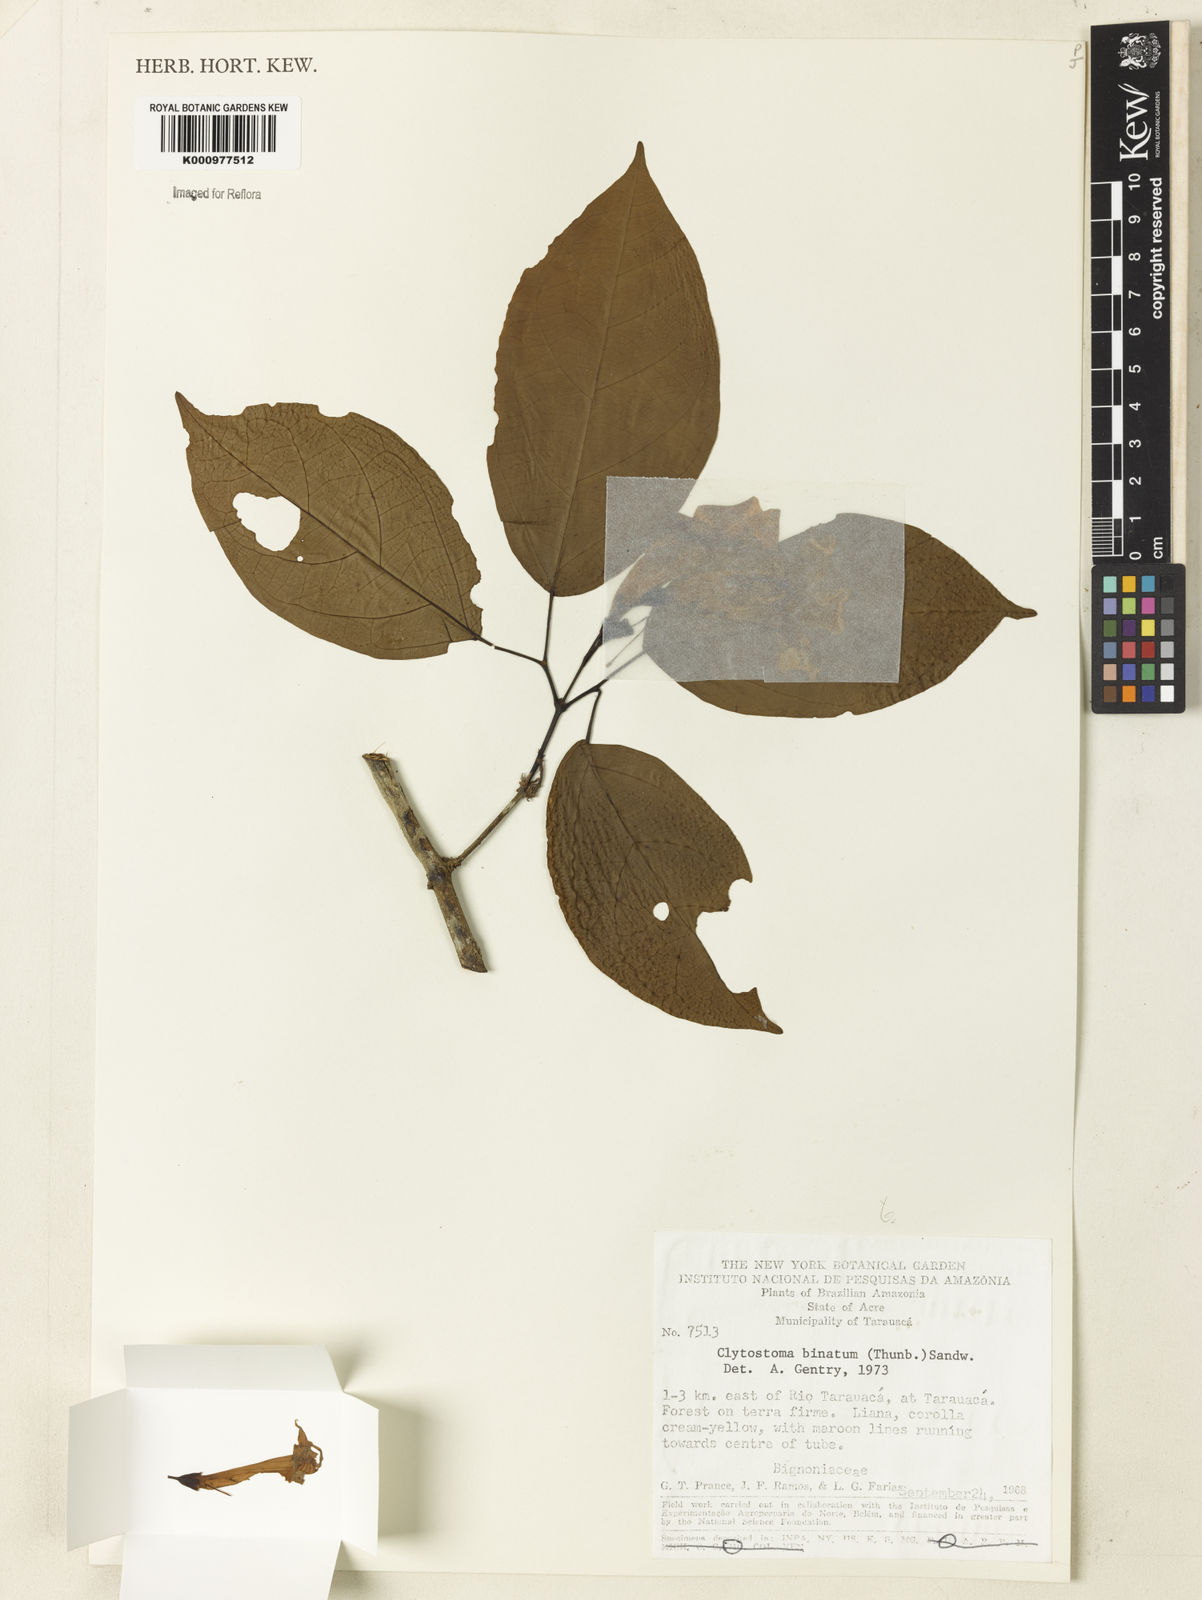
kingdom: Plantae
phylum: Tracheophyta
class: Magnoliopsida
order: Lamiales
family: Bignoniaceae
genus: Bignonia
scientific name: Bignonia binata
